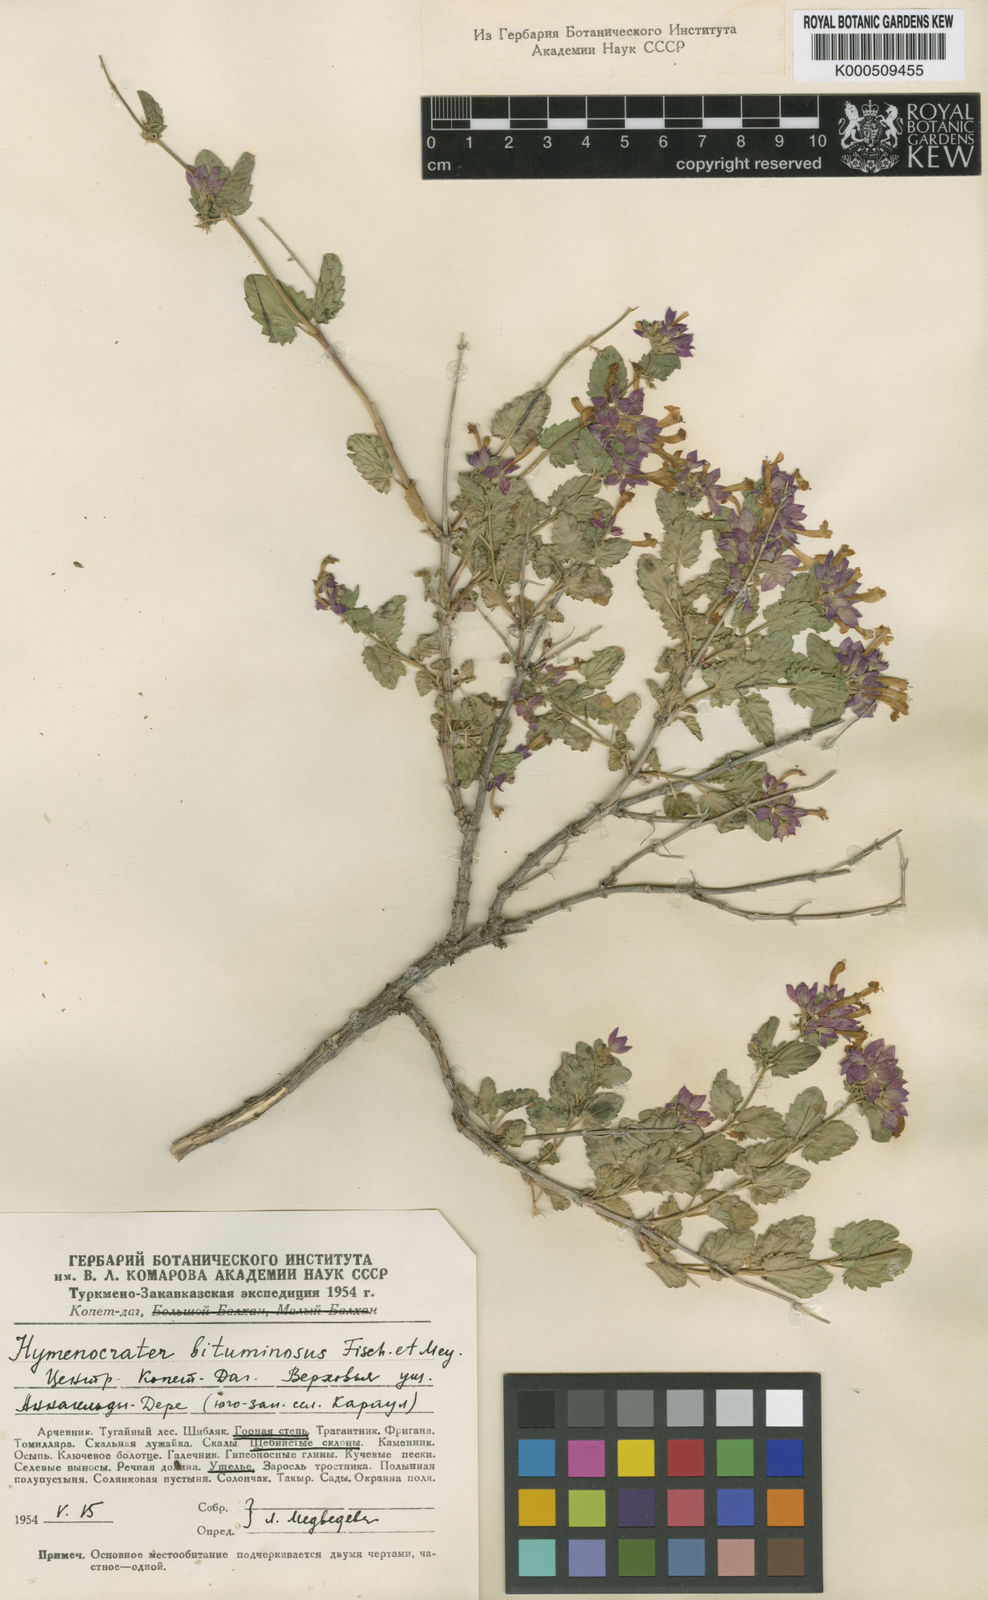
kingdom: Plantae
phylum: Tracheophyta
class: Magnoliopsida
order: Lamiales
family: Lamiaceae
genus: Nepeta
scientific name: Nepeta bituminosa
